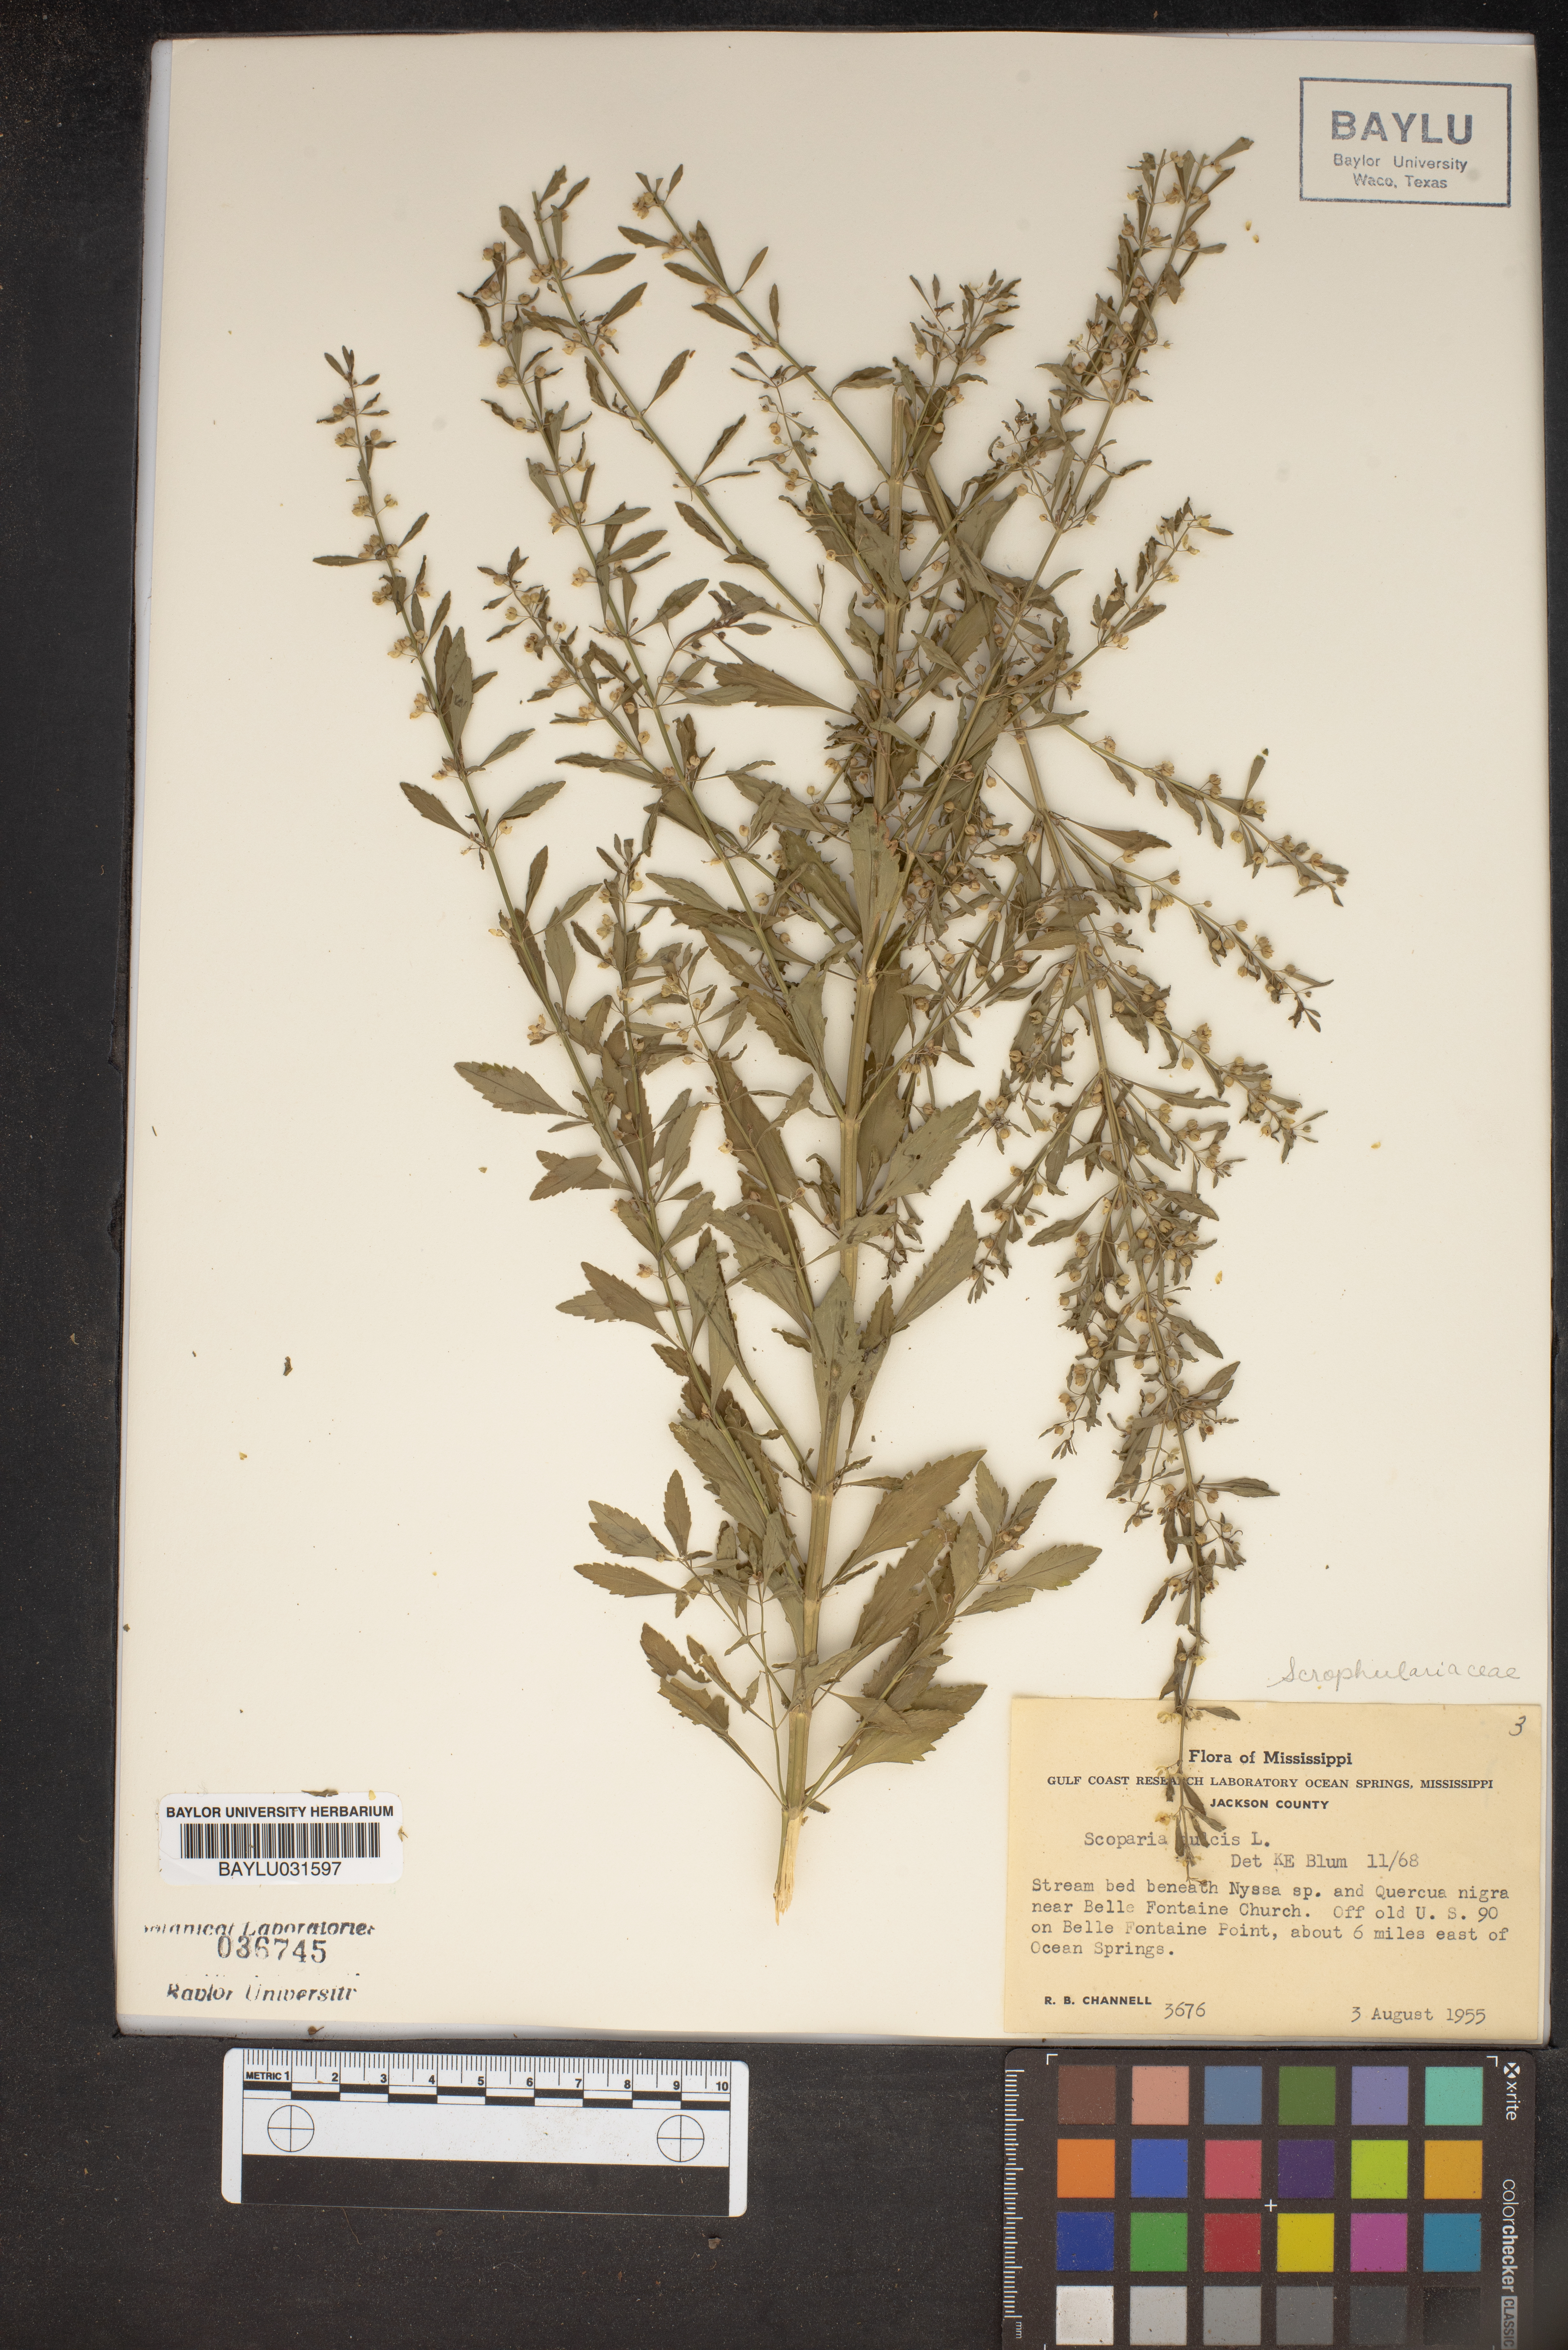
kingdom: Plantae
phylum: Tracheophyta
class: Magnoliopsida
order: Lamiales
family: Plantaginaceae
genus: Scoparia
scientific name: Scoparia dulcis
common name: Scoparia-weed
